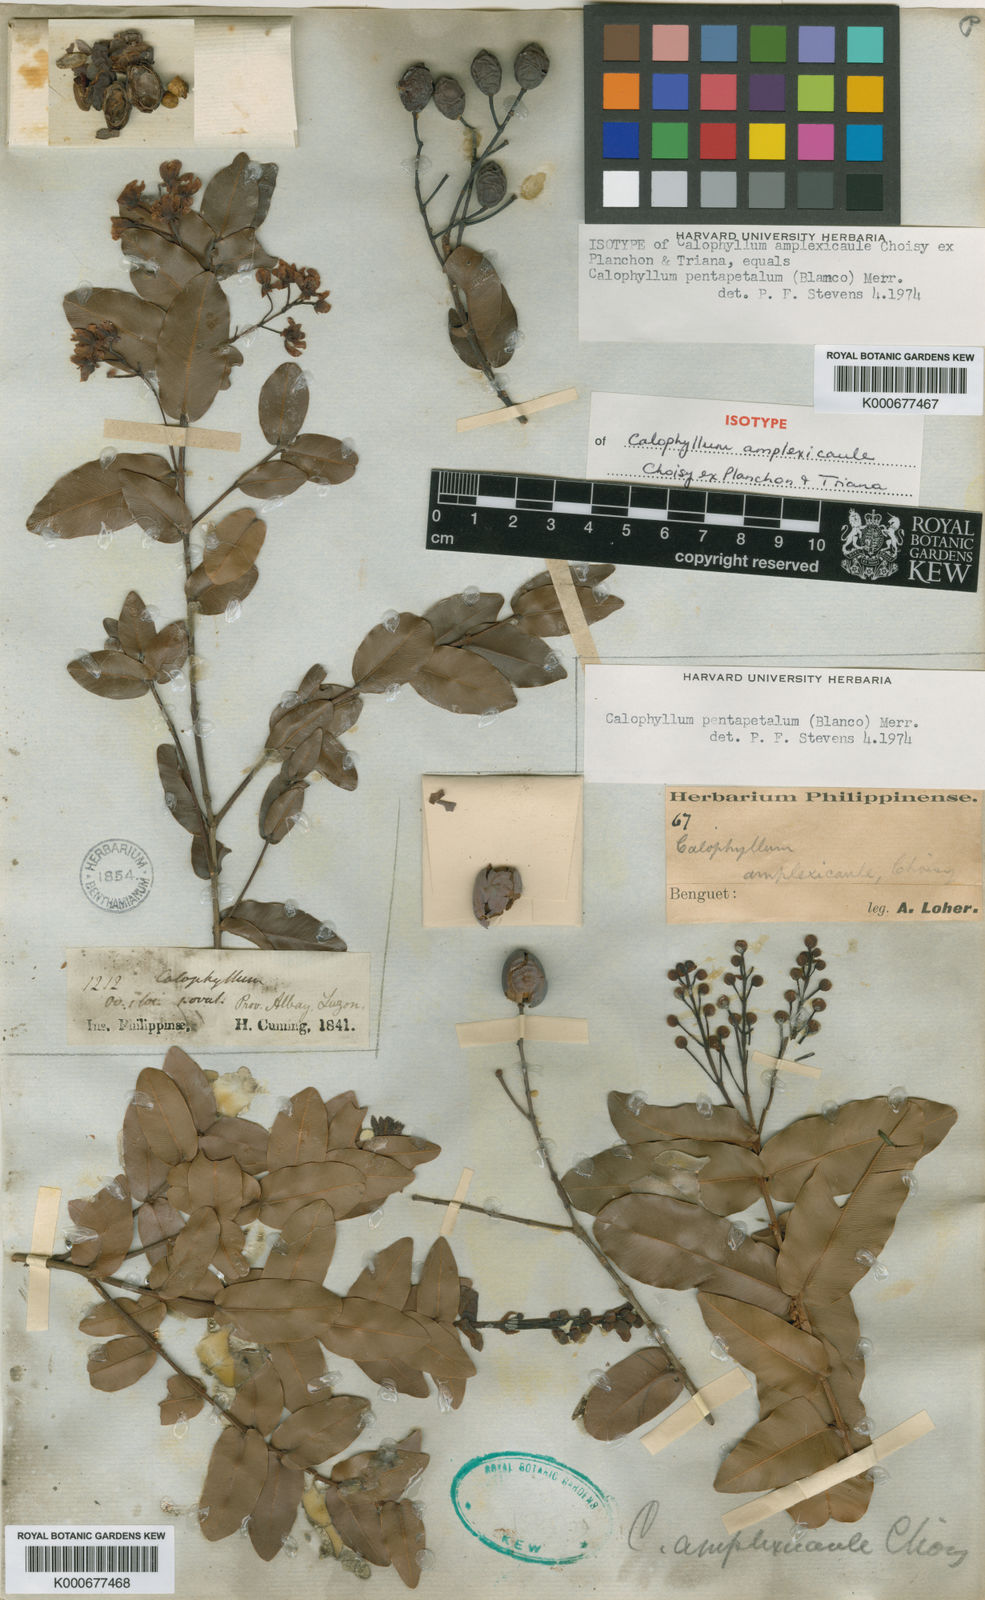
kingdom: Plantae
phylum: Tracheophyta
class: Magnoliopsida
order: Malpighiales
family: Calophyllaceae
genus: Calophyllum
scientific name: Calophyllum pentapetalum
